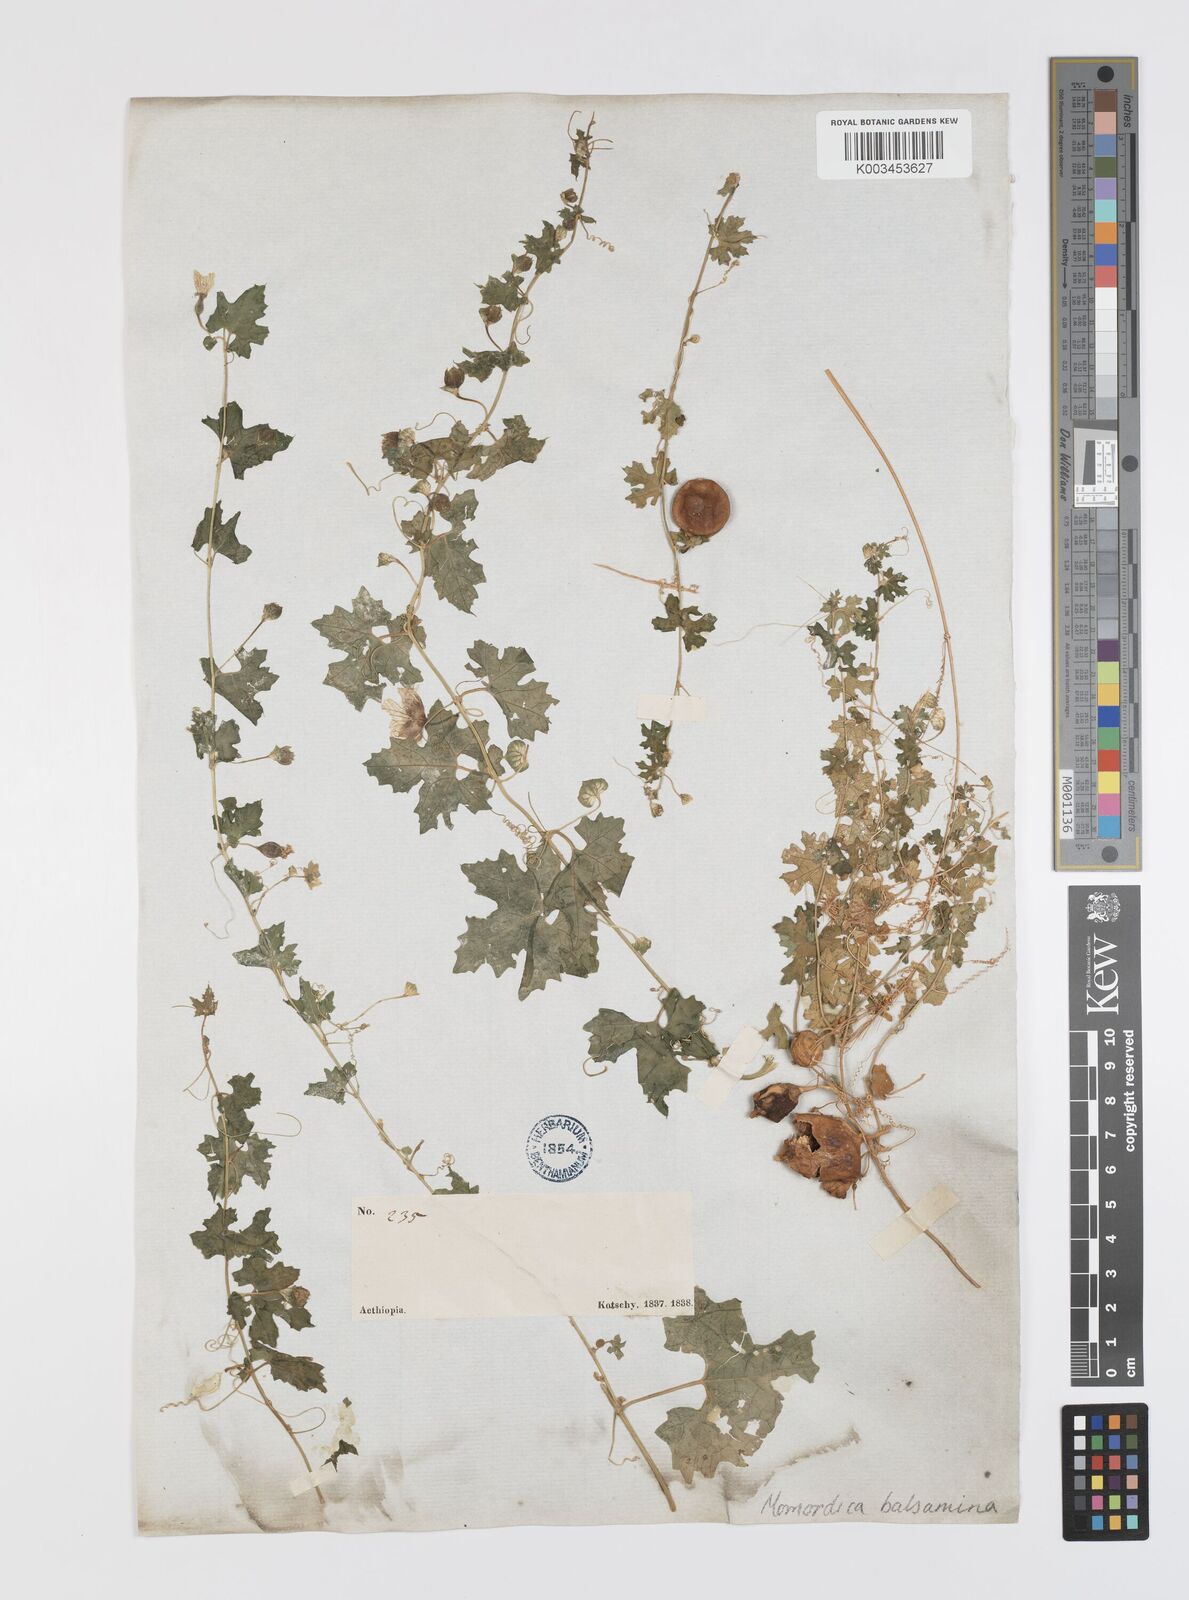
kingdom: Plantae
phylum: Tracheophyta
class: Magnoliopsida
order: Cucurbitales
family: Cucurbitaceae
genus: Momordica
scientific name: Momordica balsamina
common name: Southern balsampear
